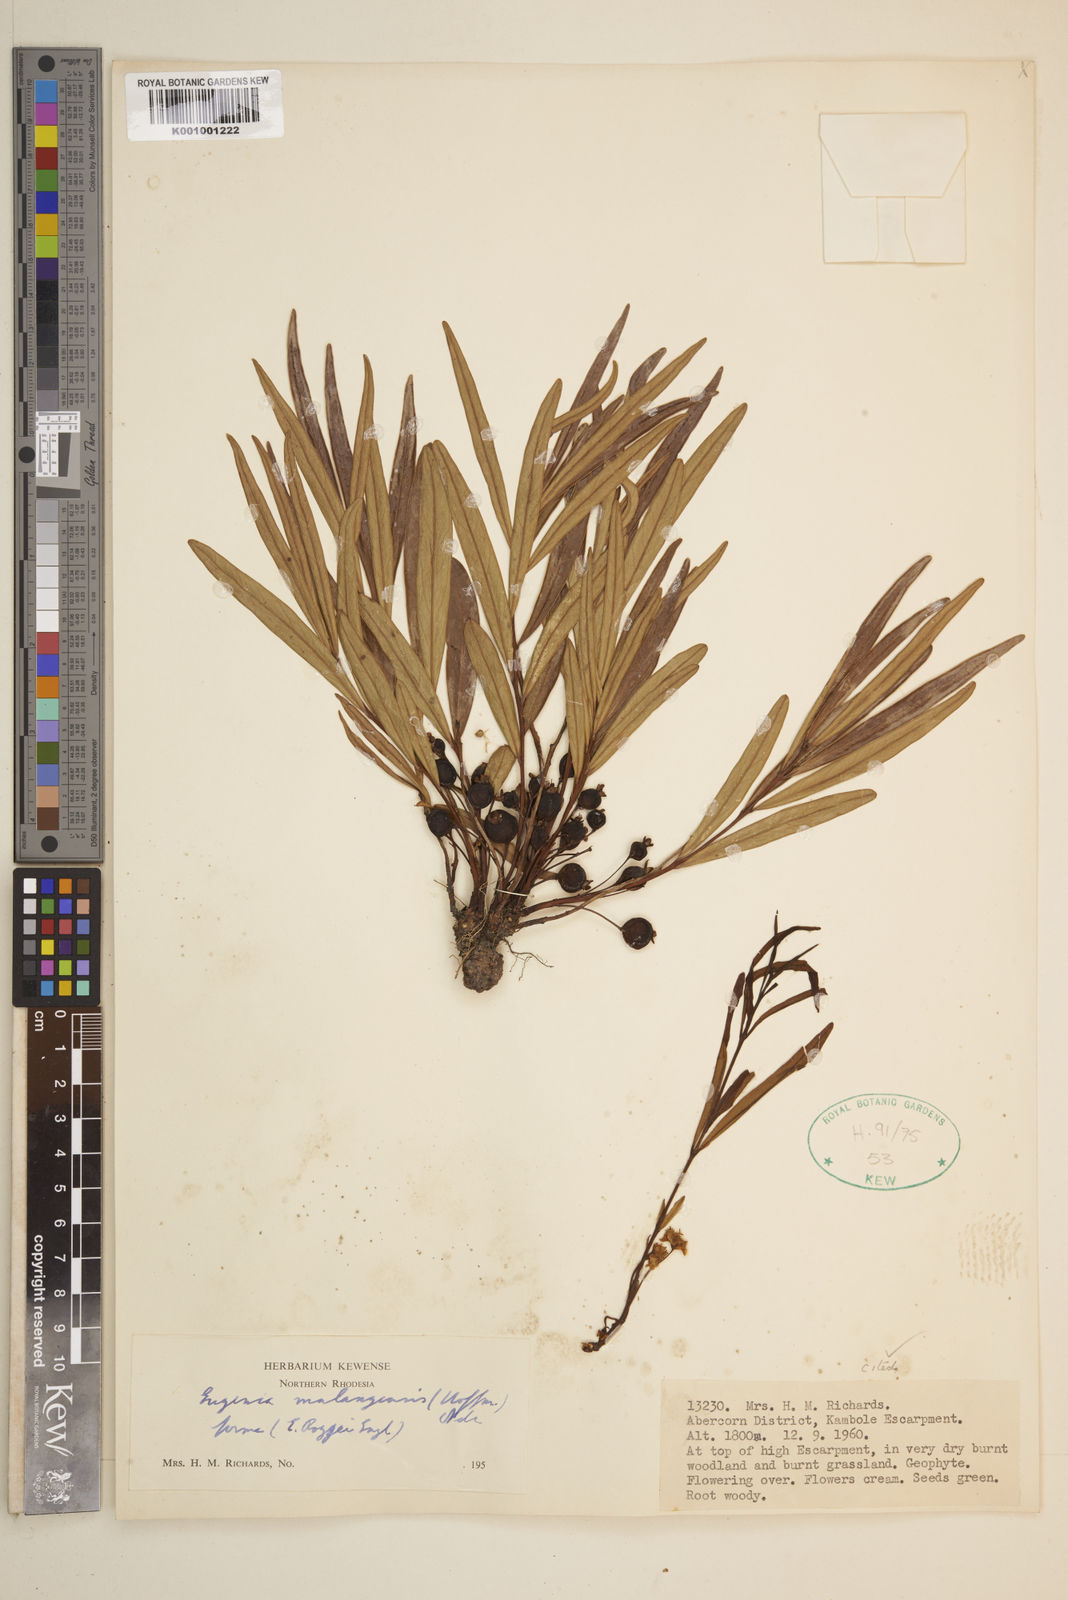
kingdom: Plantae
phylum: Tracheophyta
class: Magnoliopsida
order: Myrtales
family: Myrtaceae
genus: Eugenia
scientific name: Eugenia malangensis
